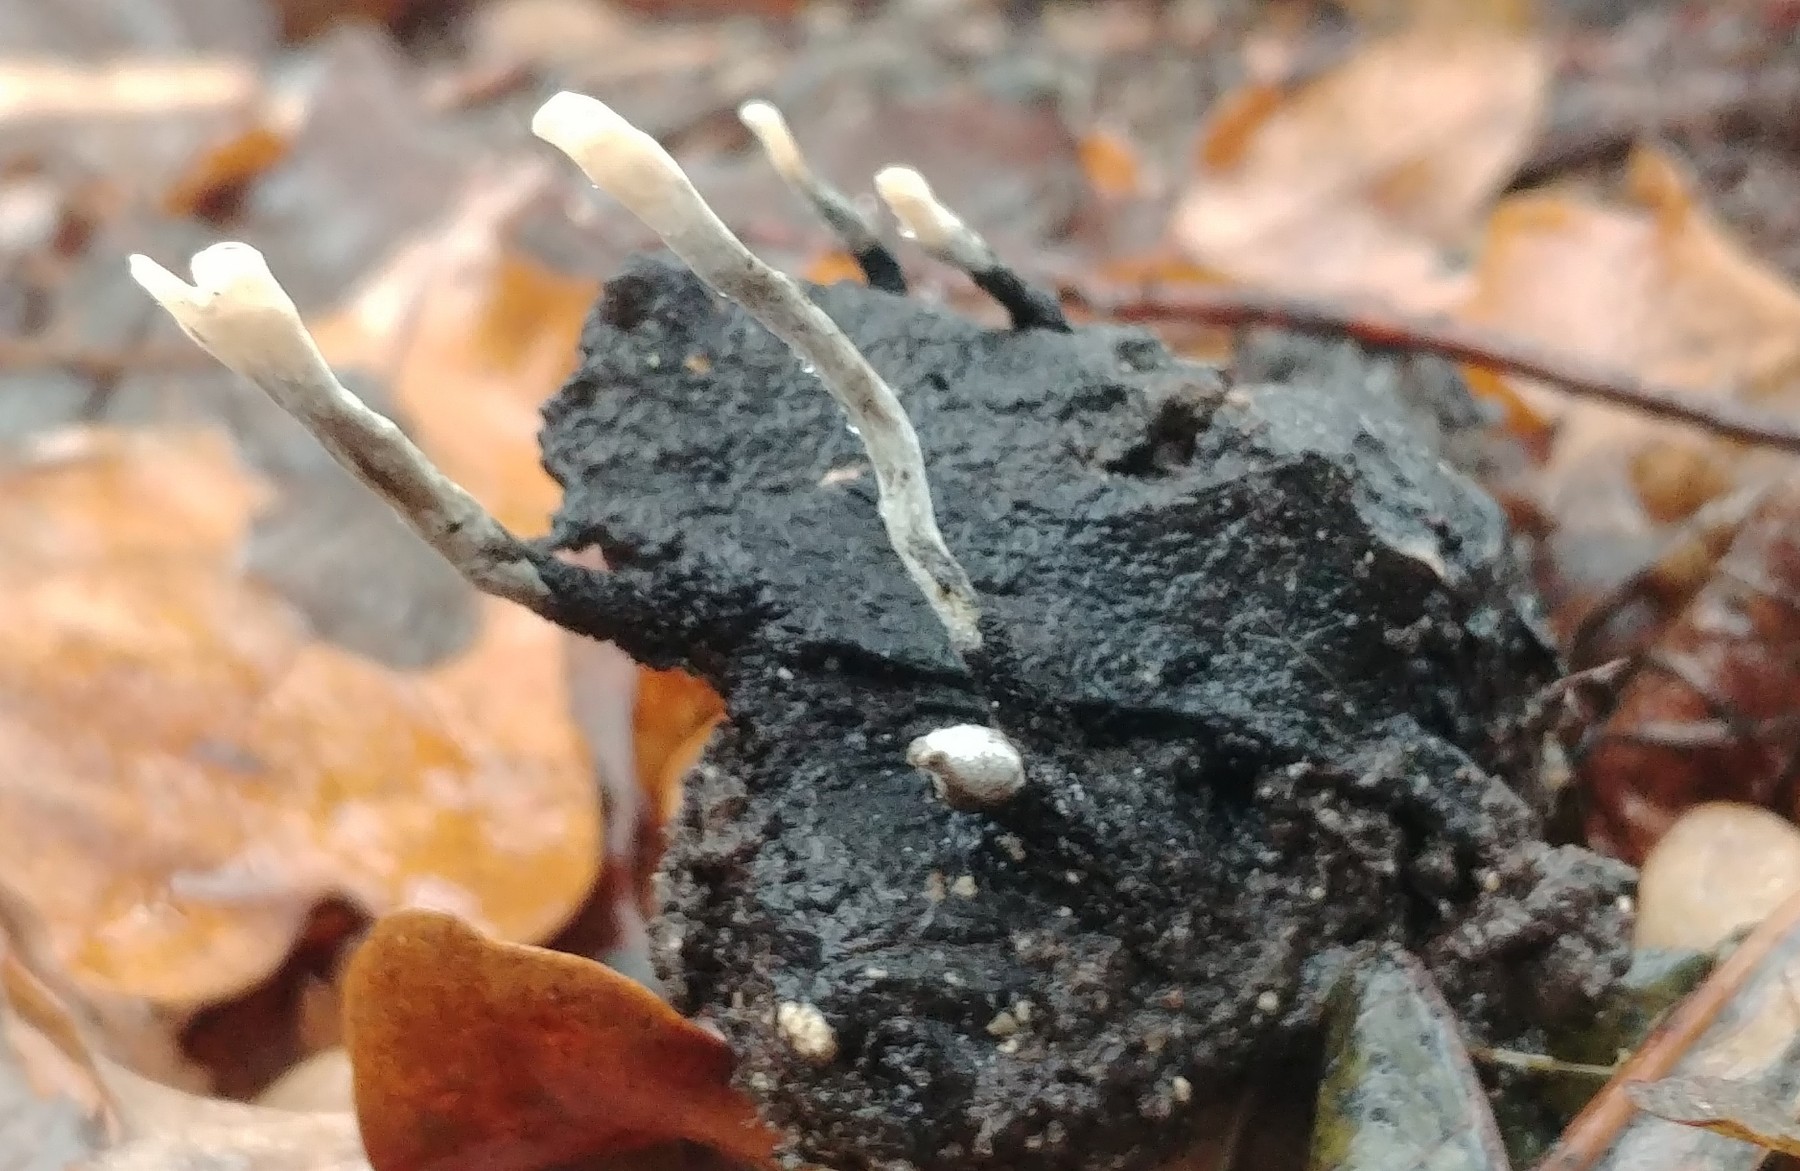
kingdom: Fungi
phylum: Ascomycota
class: Sordariomycetes
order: Xylariales
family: Xylariaceae
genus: Xylaria
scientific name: Xylaria hypoxylon
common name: grenet stødsvamp
